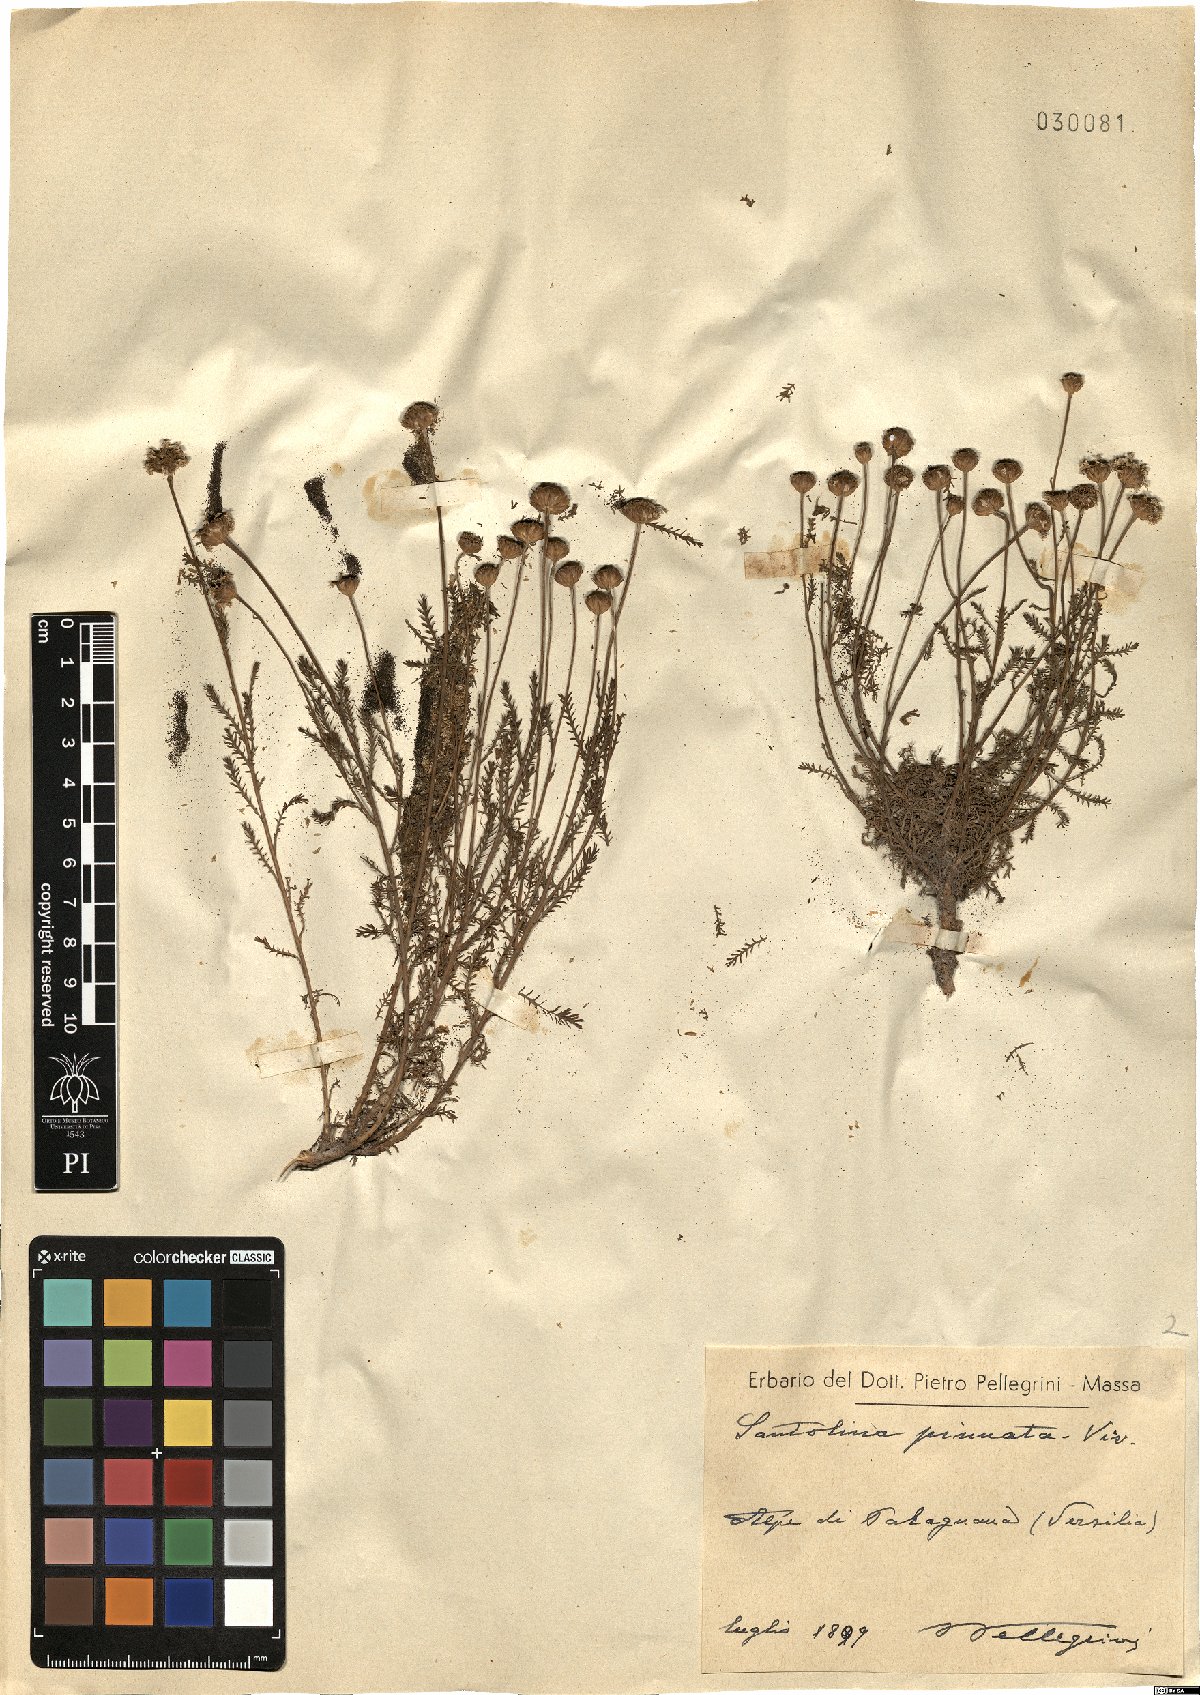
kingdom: Plantae
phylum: Tracheophyta
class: Magnoliopsida
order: Asterales
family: Asteraceae
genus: Santolina
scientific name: Santolina pinnata
